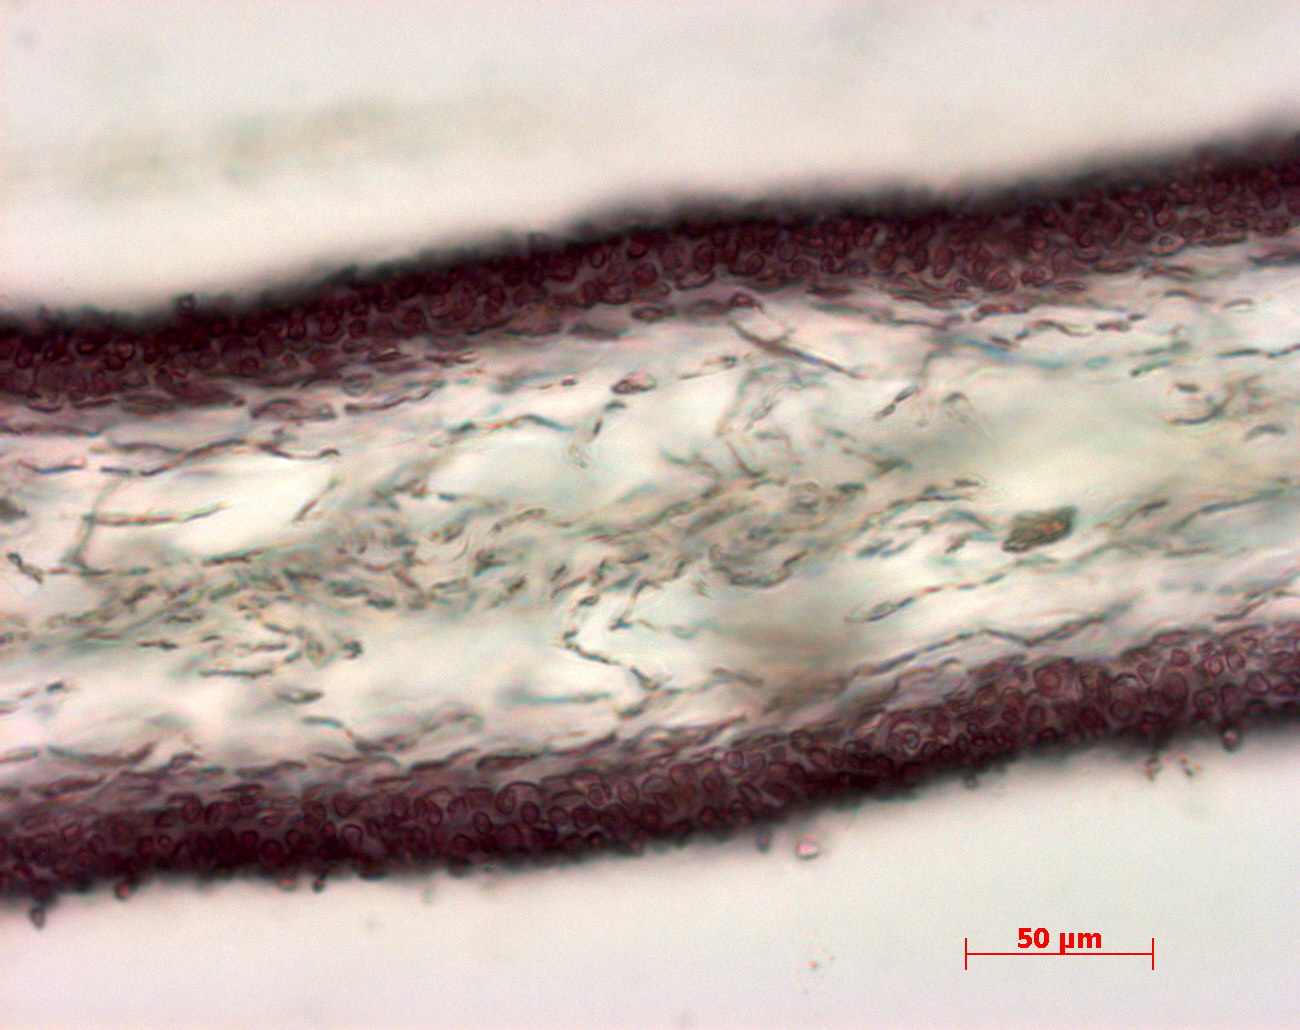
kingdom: Plantae
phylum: Rhodophyta
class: Florideophyceae
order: Halymeniales
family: Halymeniaceae
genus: Halymenia
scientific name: Halymenia
